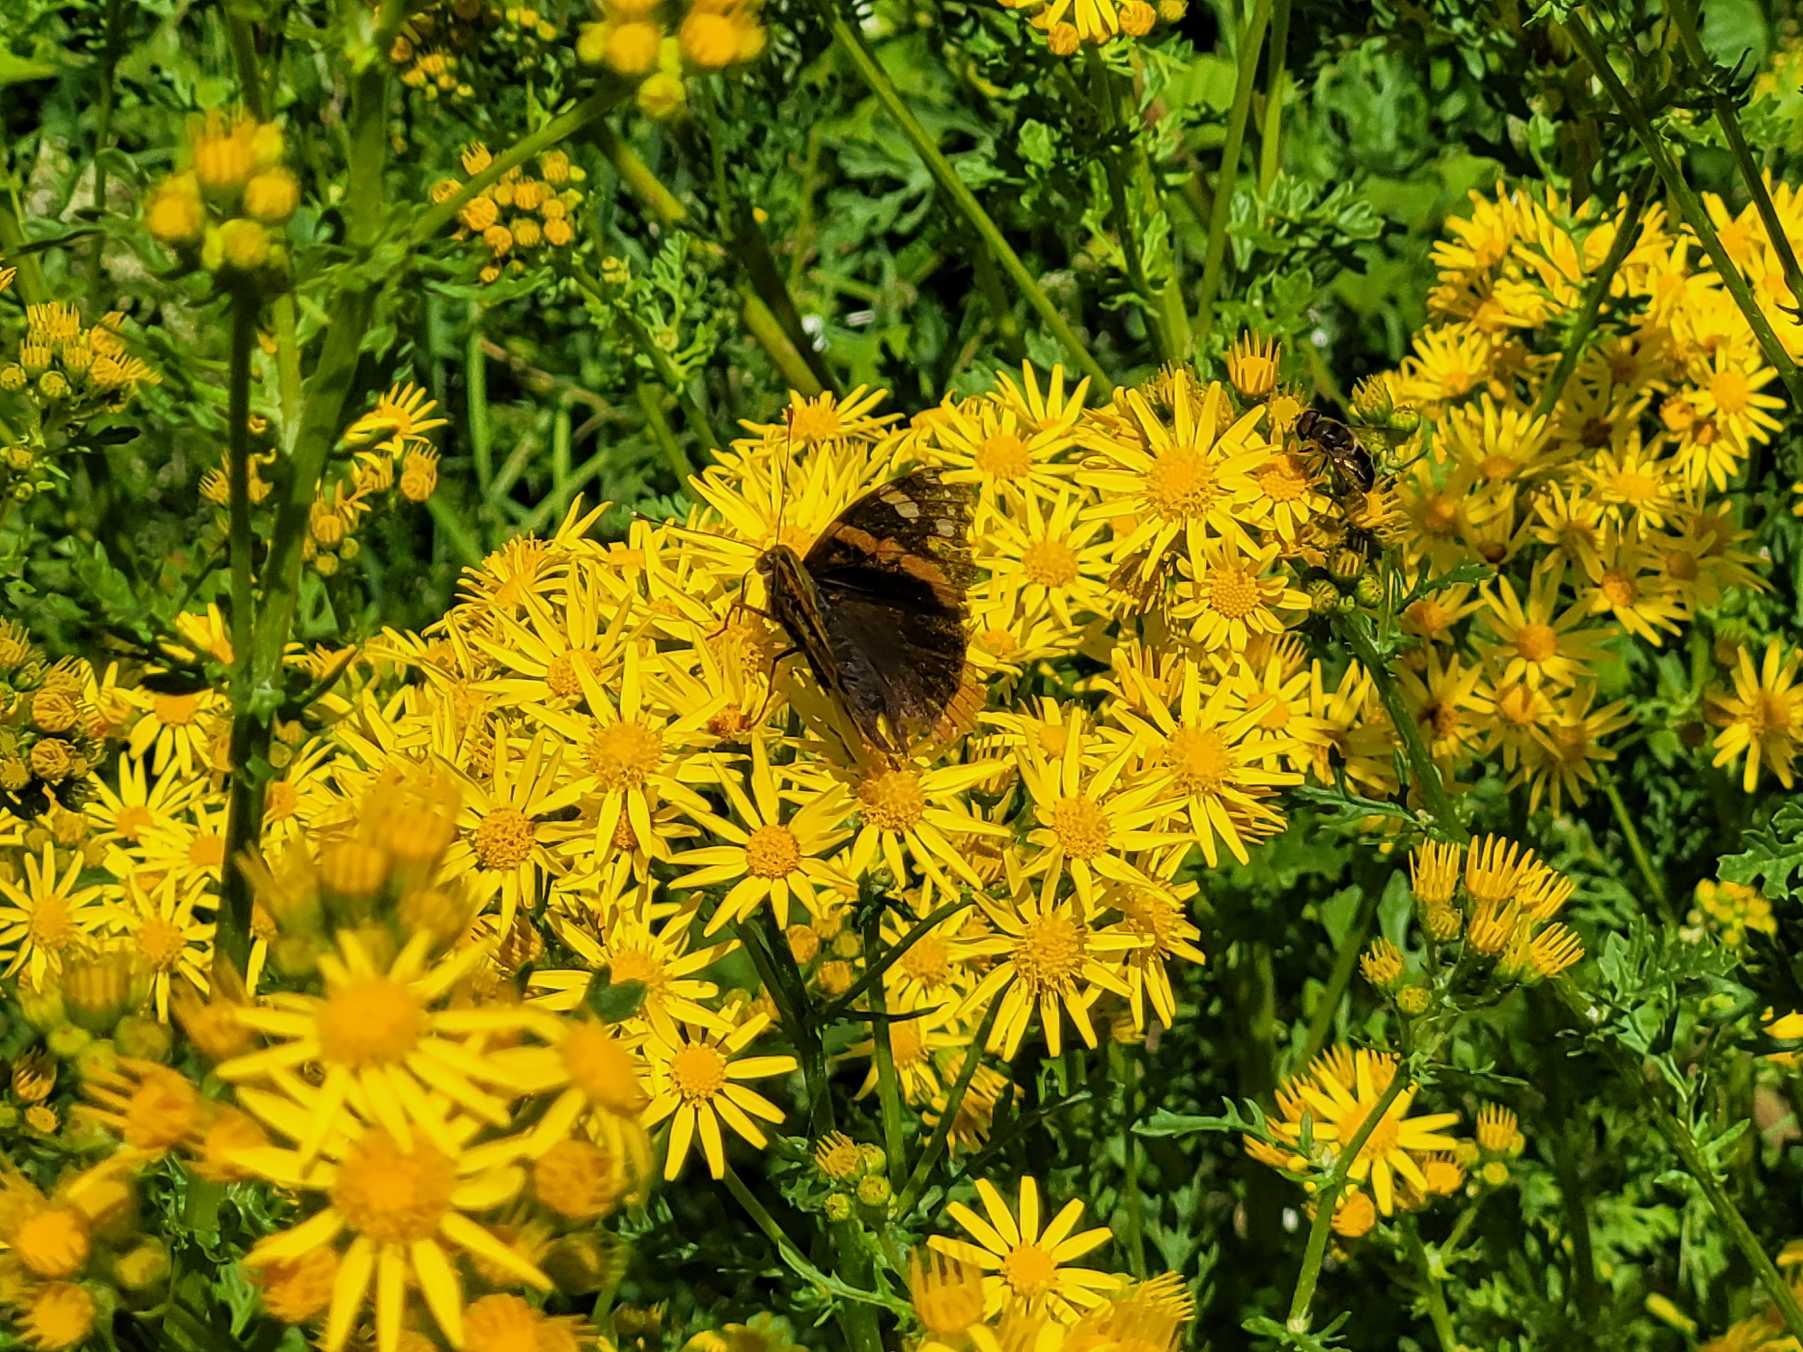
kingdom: Animalia
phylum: Arthropoda
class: Insecta
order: Lepidoptera
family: Nymphalidae
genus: Vanessa
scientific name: Vanessa atalanta
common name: Admiral
